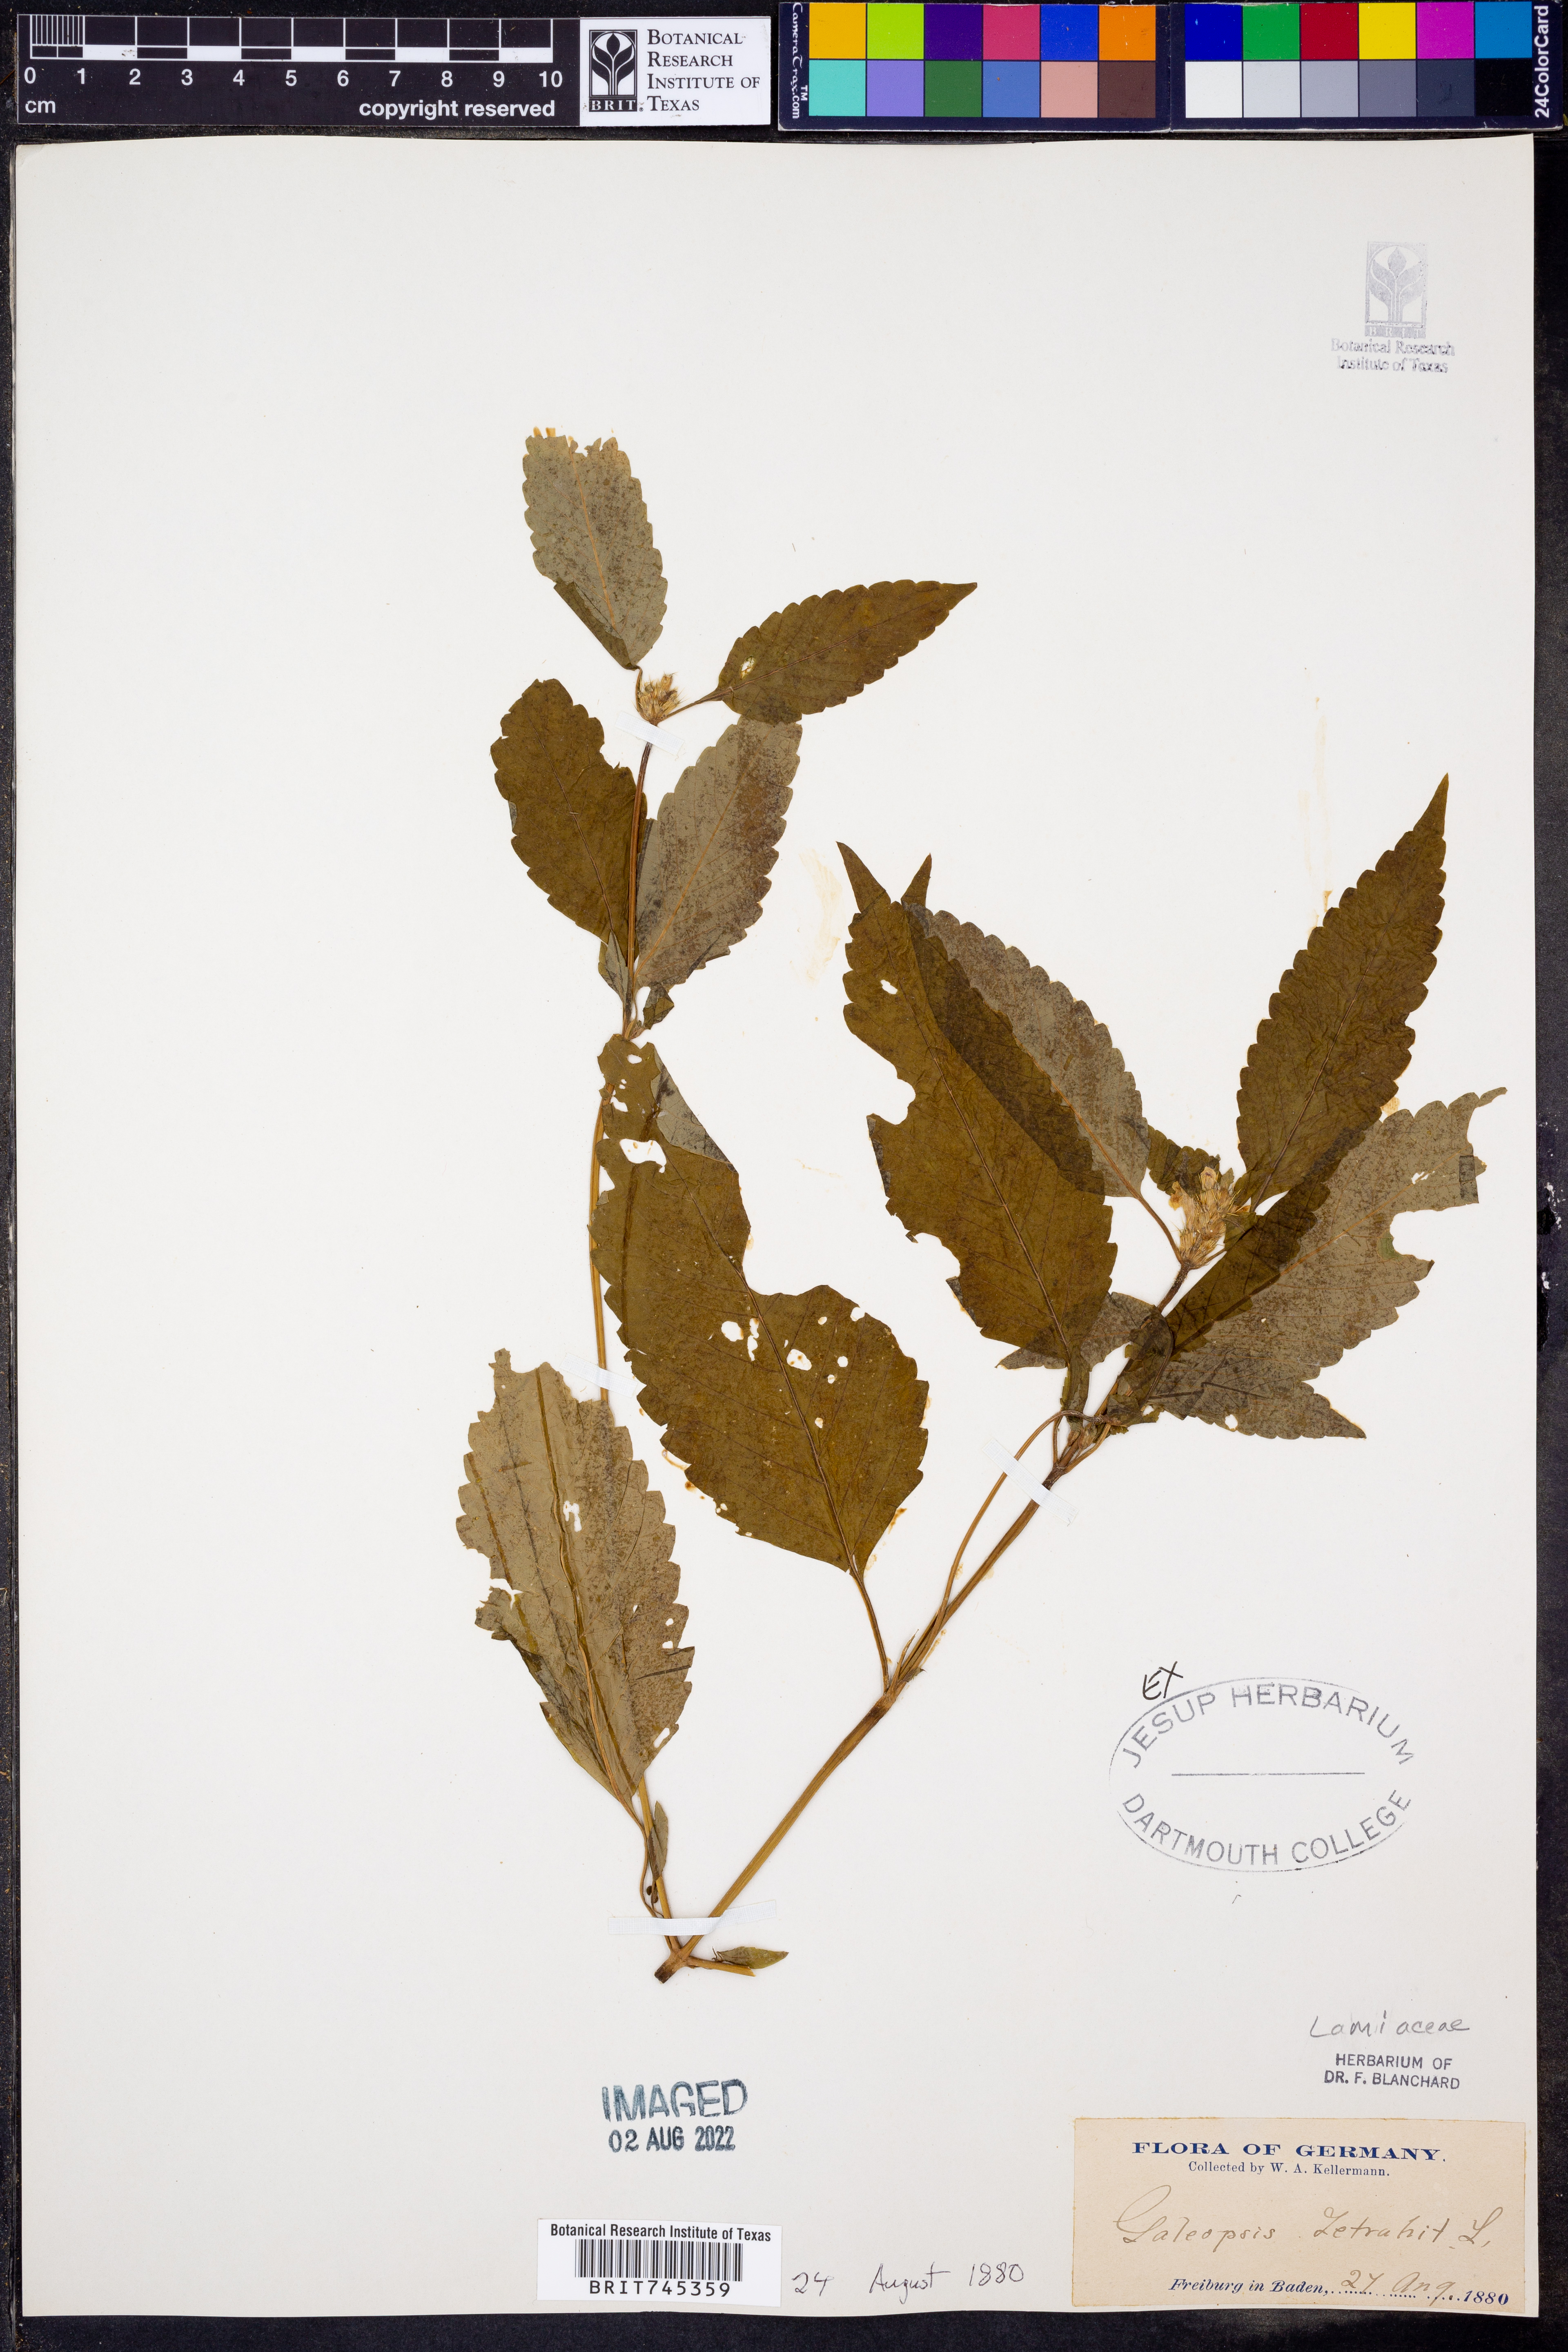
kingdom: Plantae
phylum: Tracheophyta
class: Magnoliopsida
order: Lamiales
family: Lamiaceae
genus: Galeopsis
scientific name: Galeopsis
